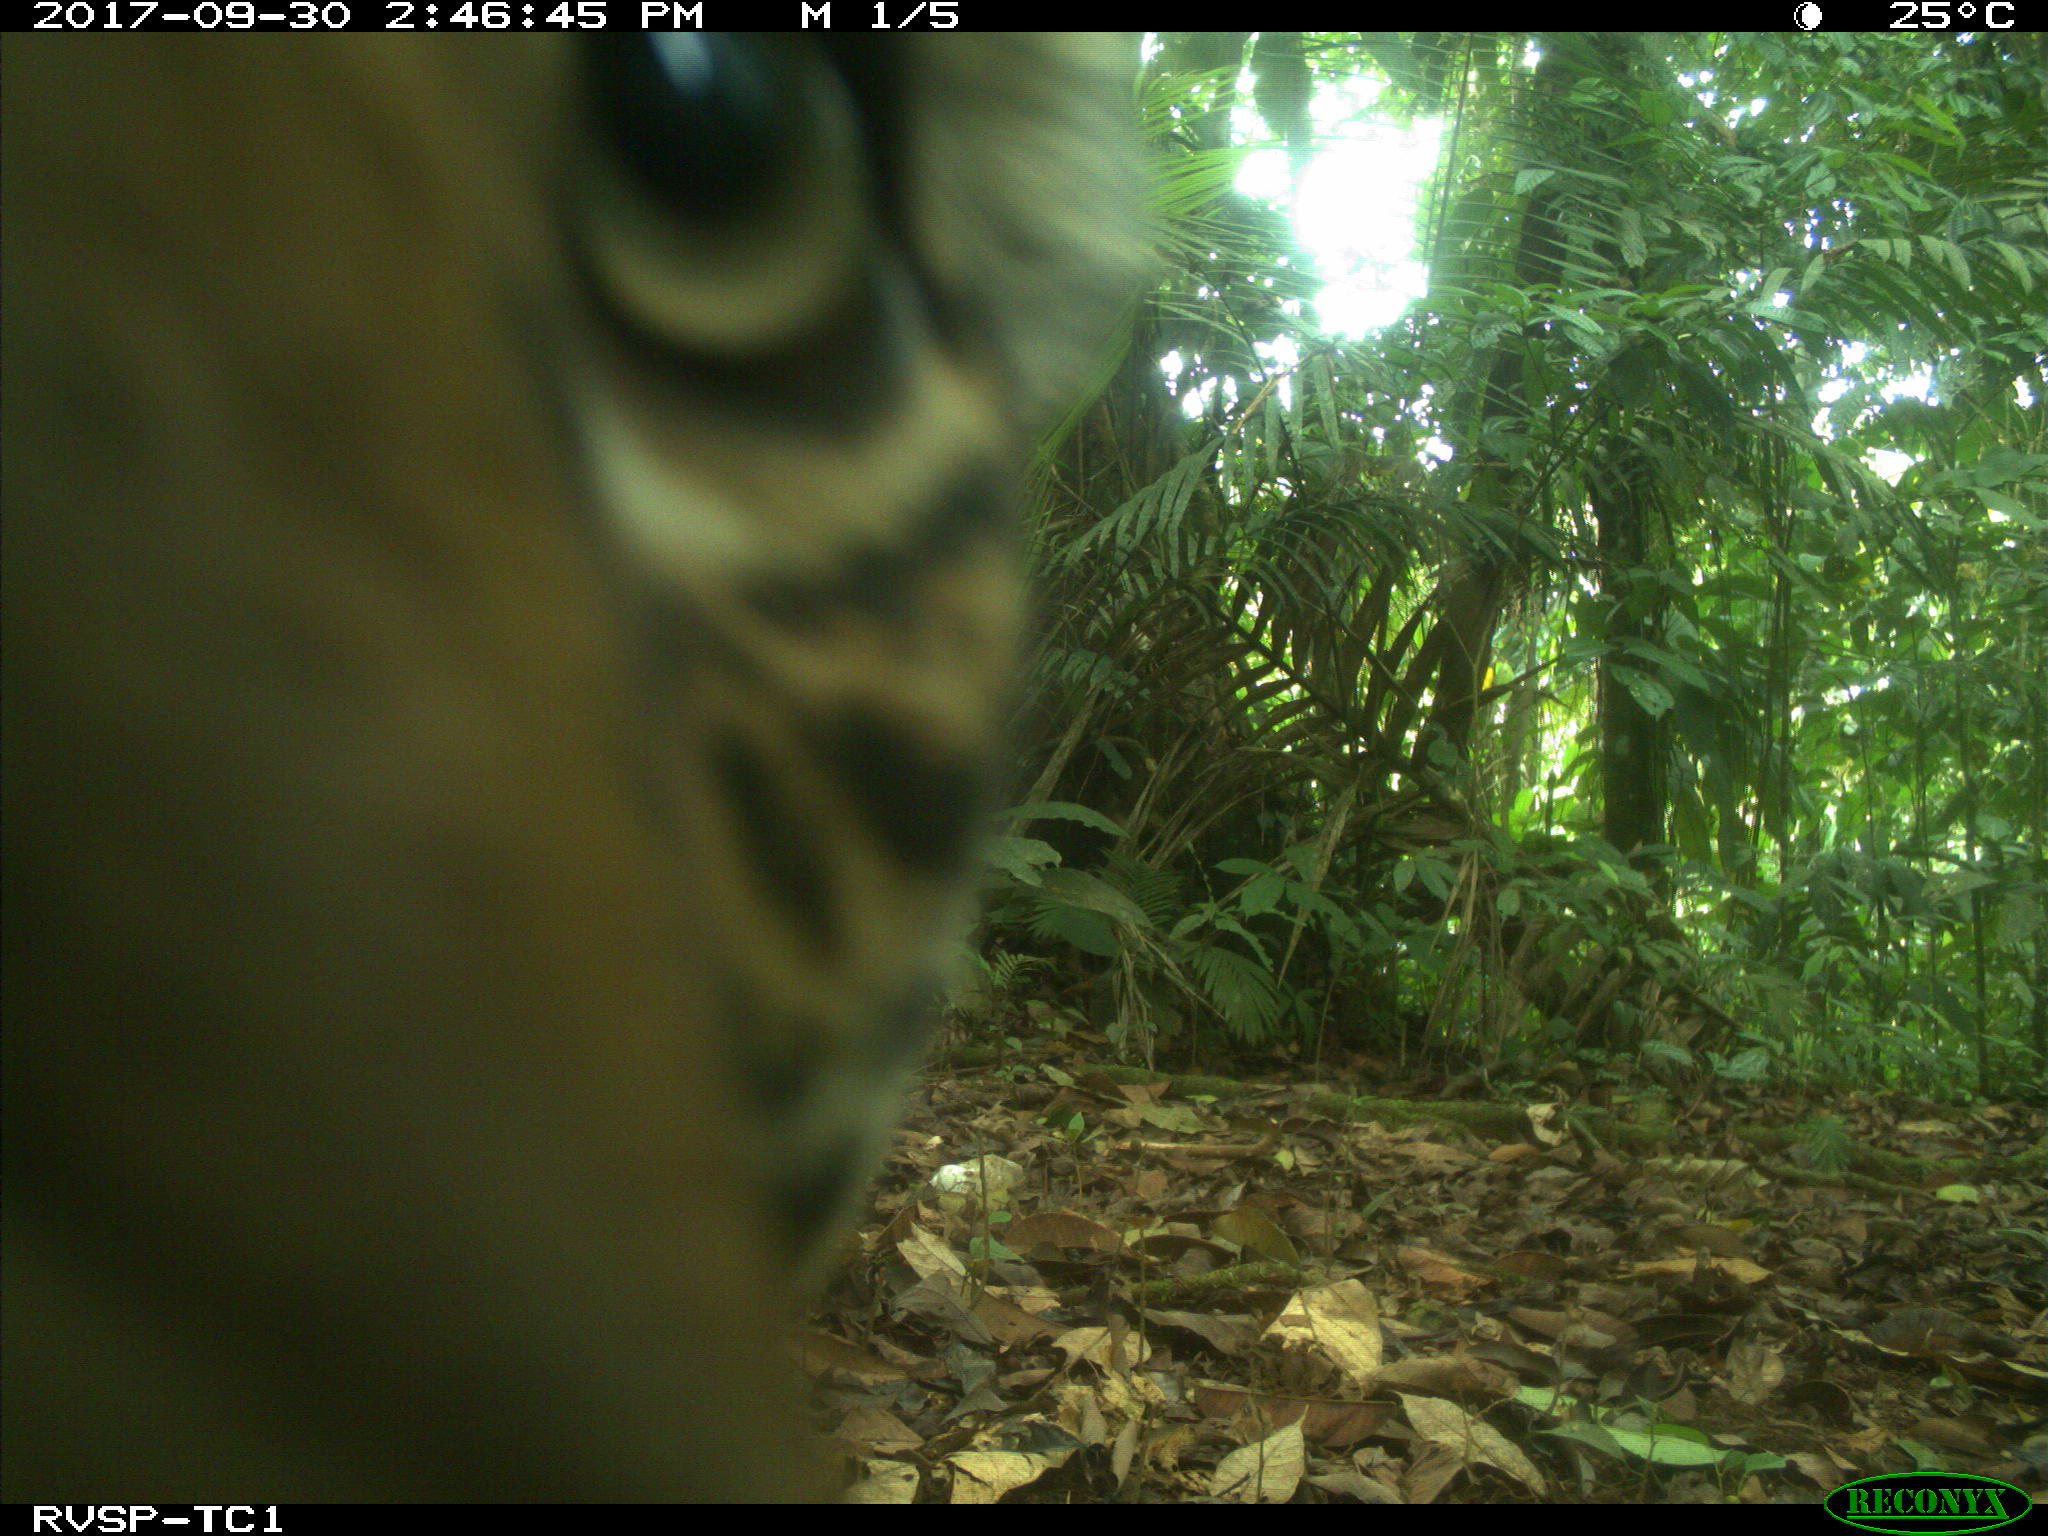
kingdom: Animalia
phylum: Chordata
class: Mammalia
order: Carnivora
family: Felidae
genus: Panthera
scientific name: Panthera onca
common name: Jaguar
